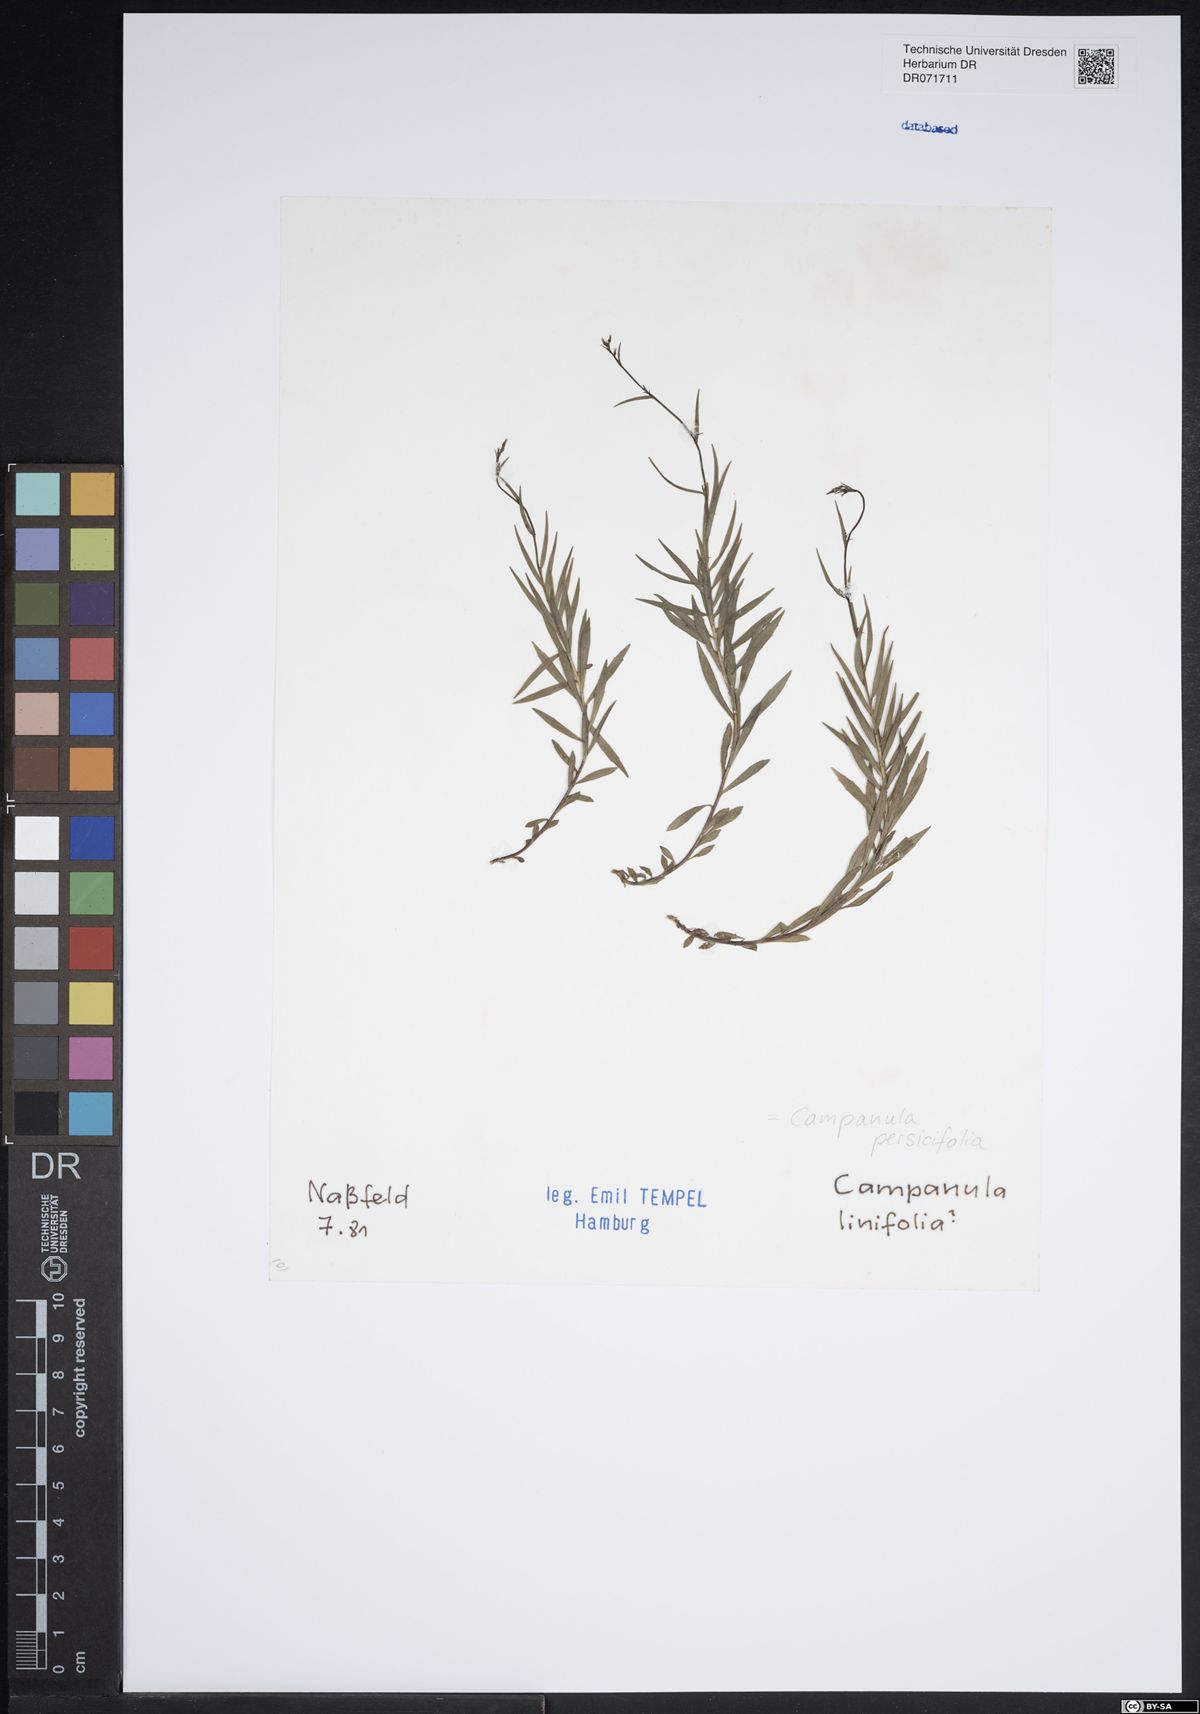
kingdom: Plantae
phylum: Tracheophyta
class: Magnoliopsida
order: Asterales
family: Campanulaceae
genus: Campanula
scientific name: Campanula persicifolia
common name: Peach-leaved bellflower
